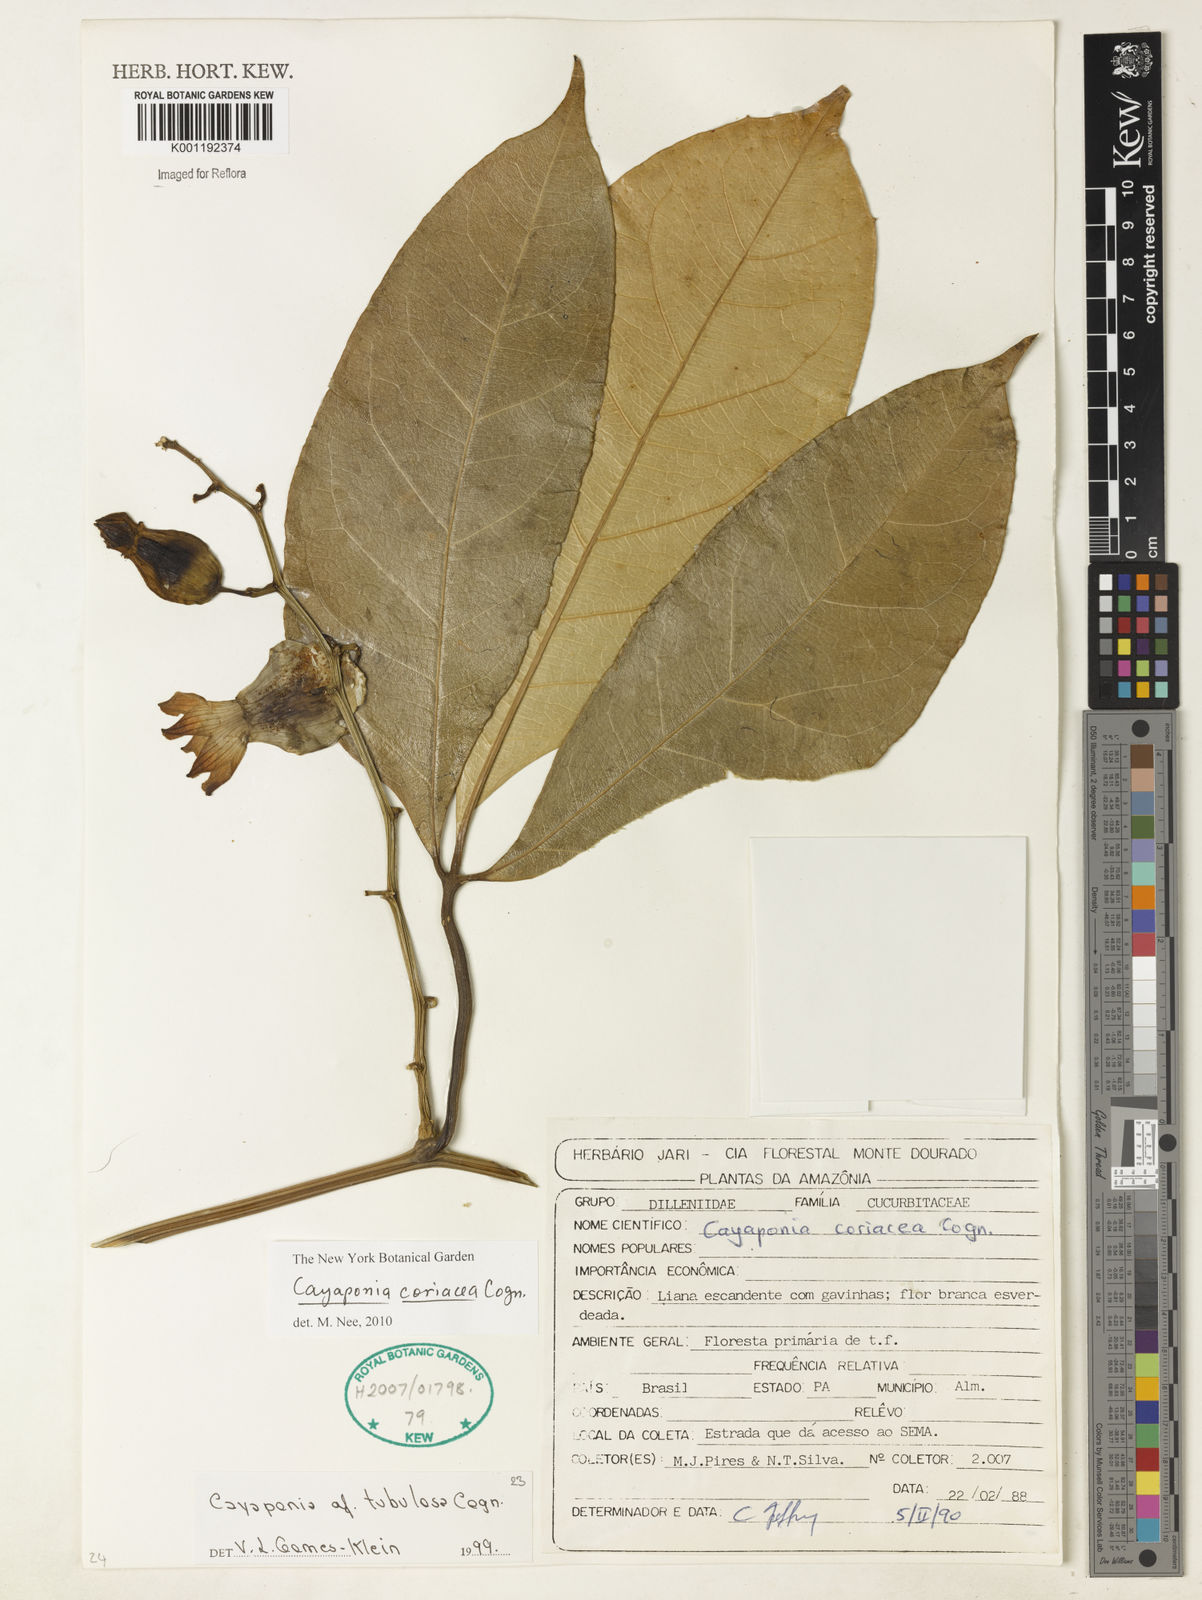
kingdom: Plantae
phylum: Tracheophyta
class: Magnoliopsida
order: Cucurbitales
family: Cucurbitaceae
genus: Cayaponia
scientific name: Cayaponia coriacea
